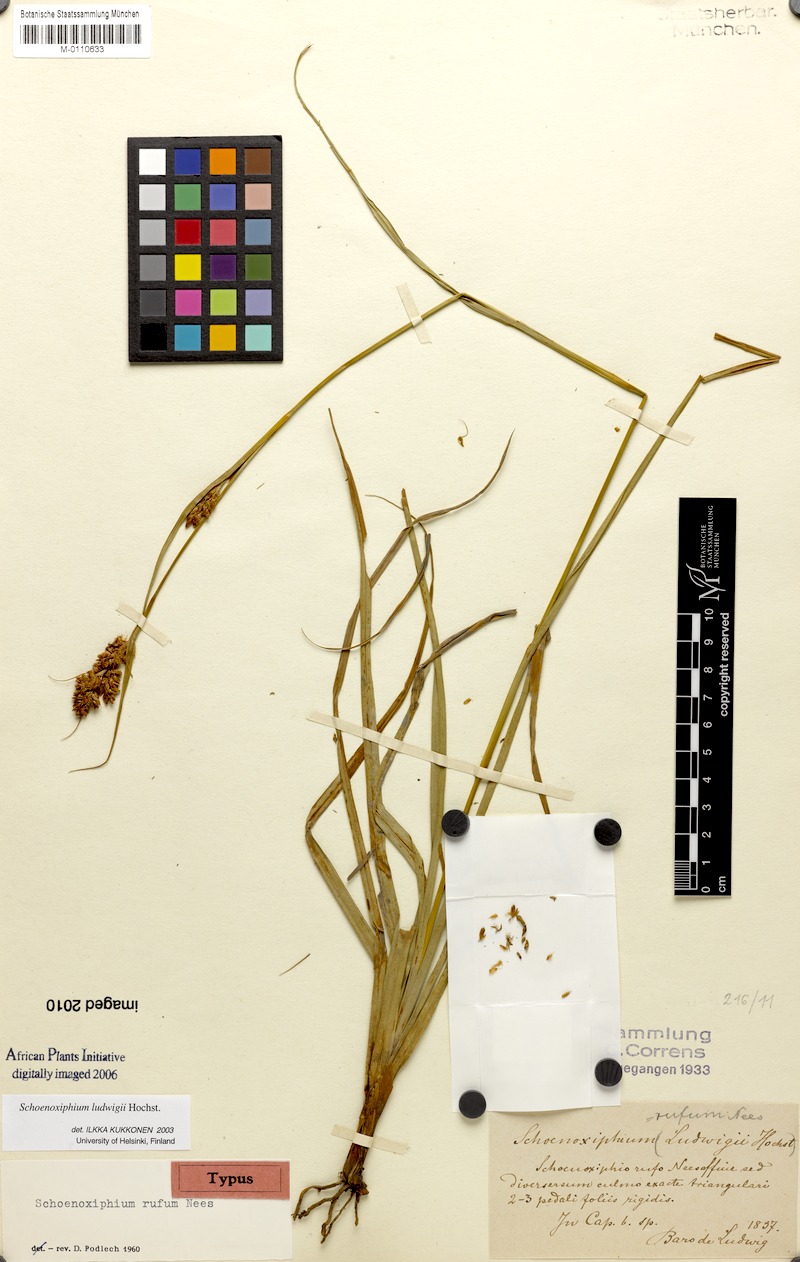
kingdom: Plantae
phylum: Tracheophyta
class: Liliopsida
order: Poales
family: Cyperaceae
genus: Carex
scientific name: Carex ludwigii
